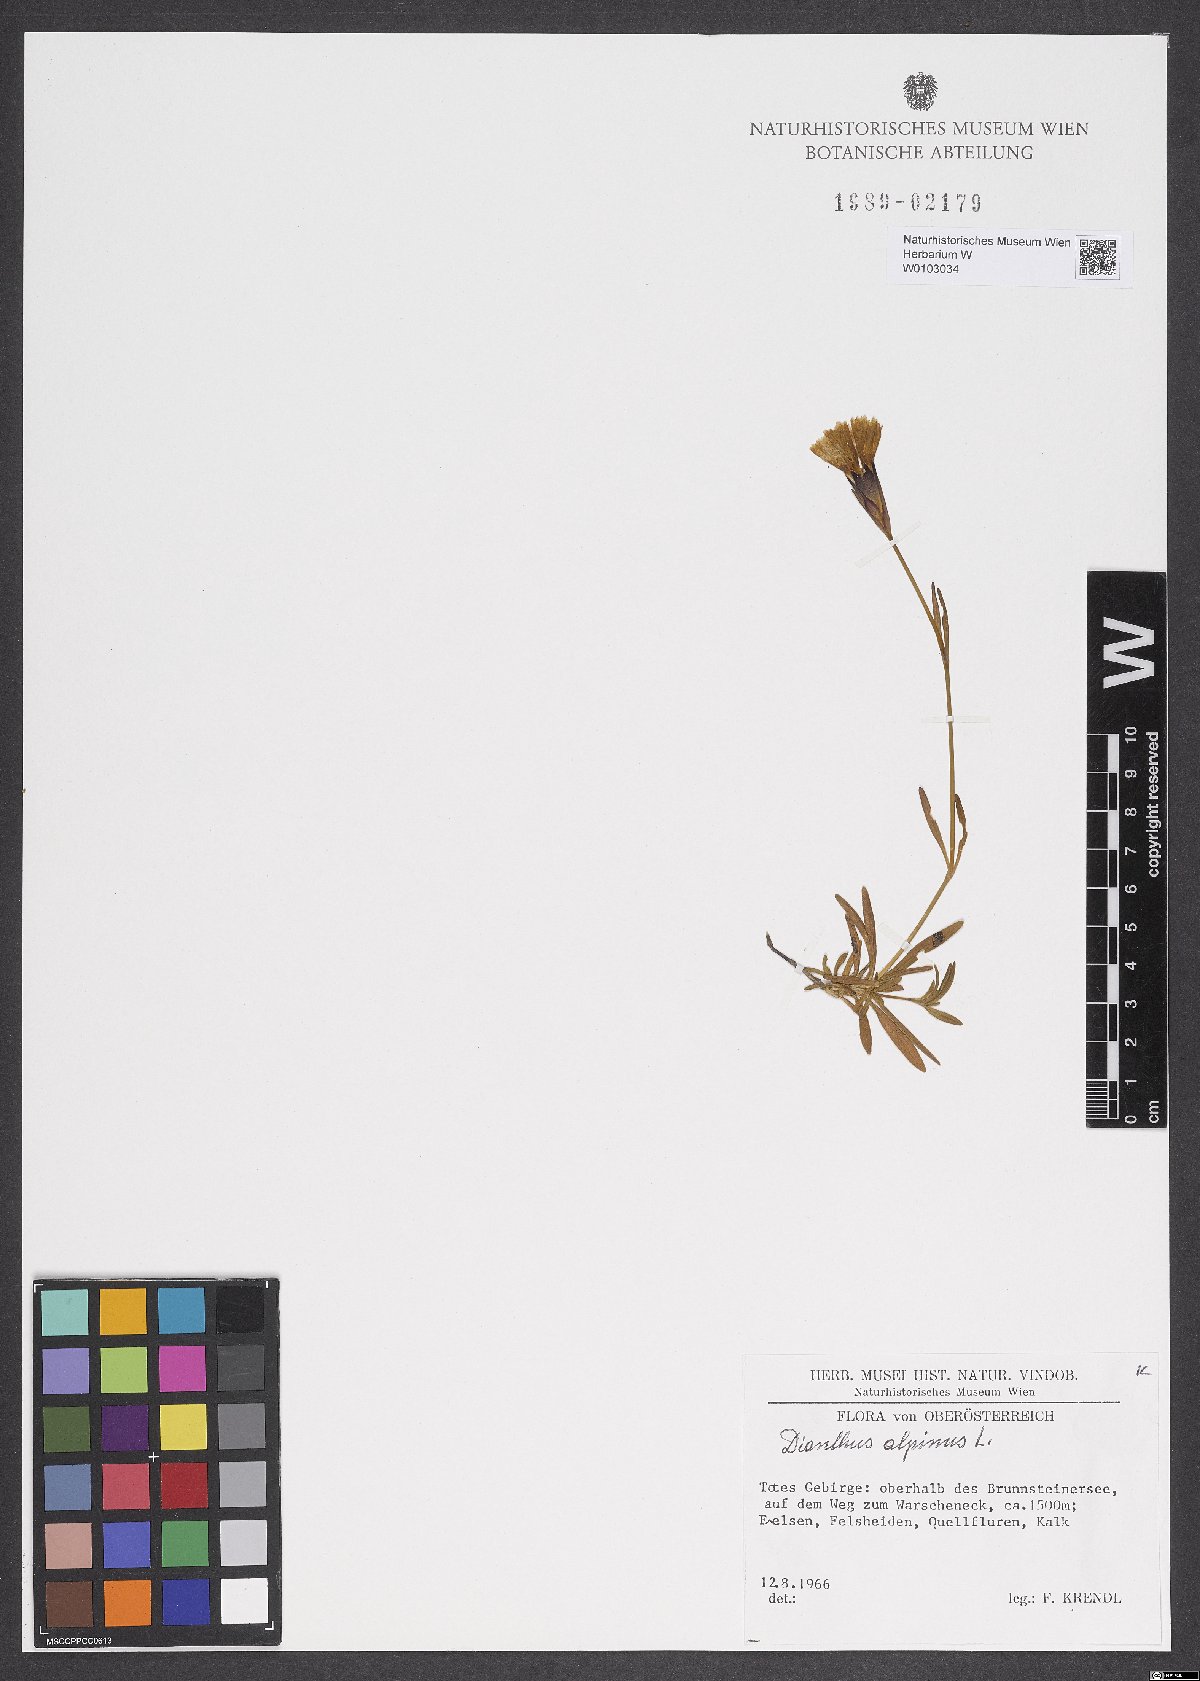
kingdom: Plantae
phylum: Tracheophyta
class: Magnoliopsida
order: Caryophyllales
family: Caryophyllaceae
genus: Dianthus
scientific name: Dianthus alpinus
